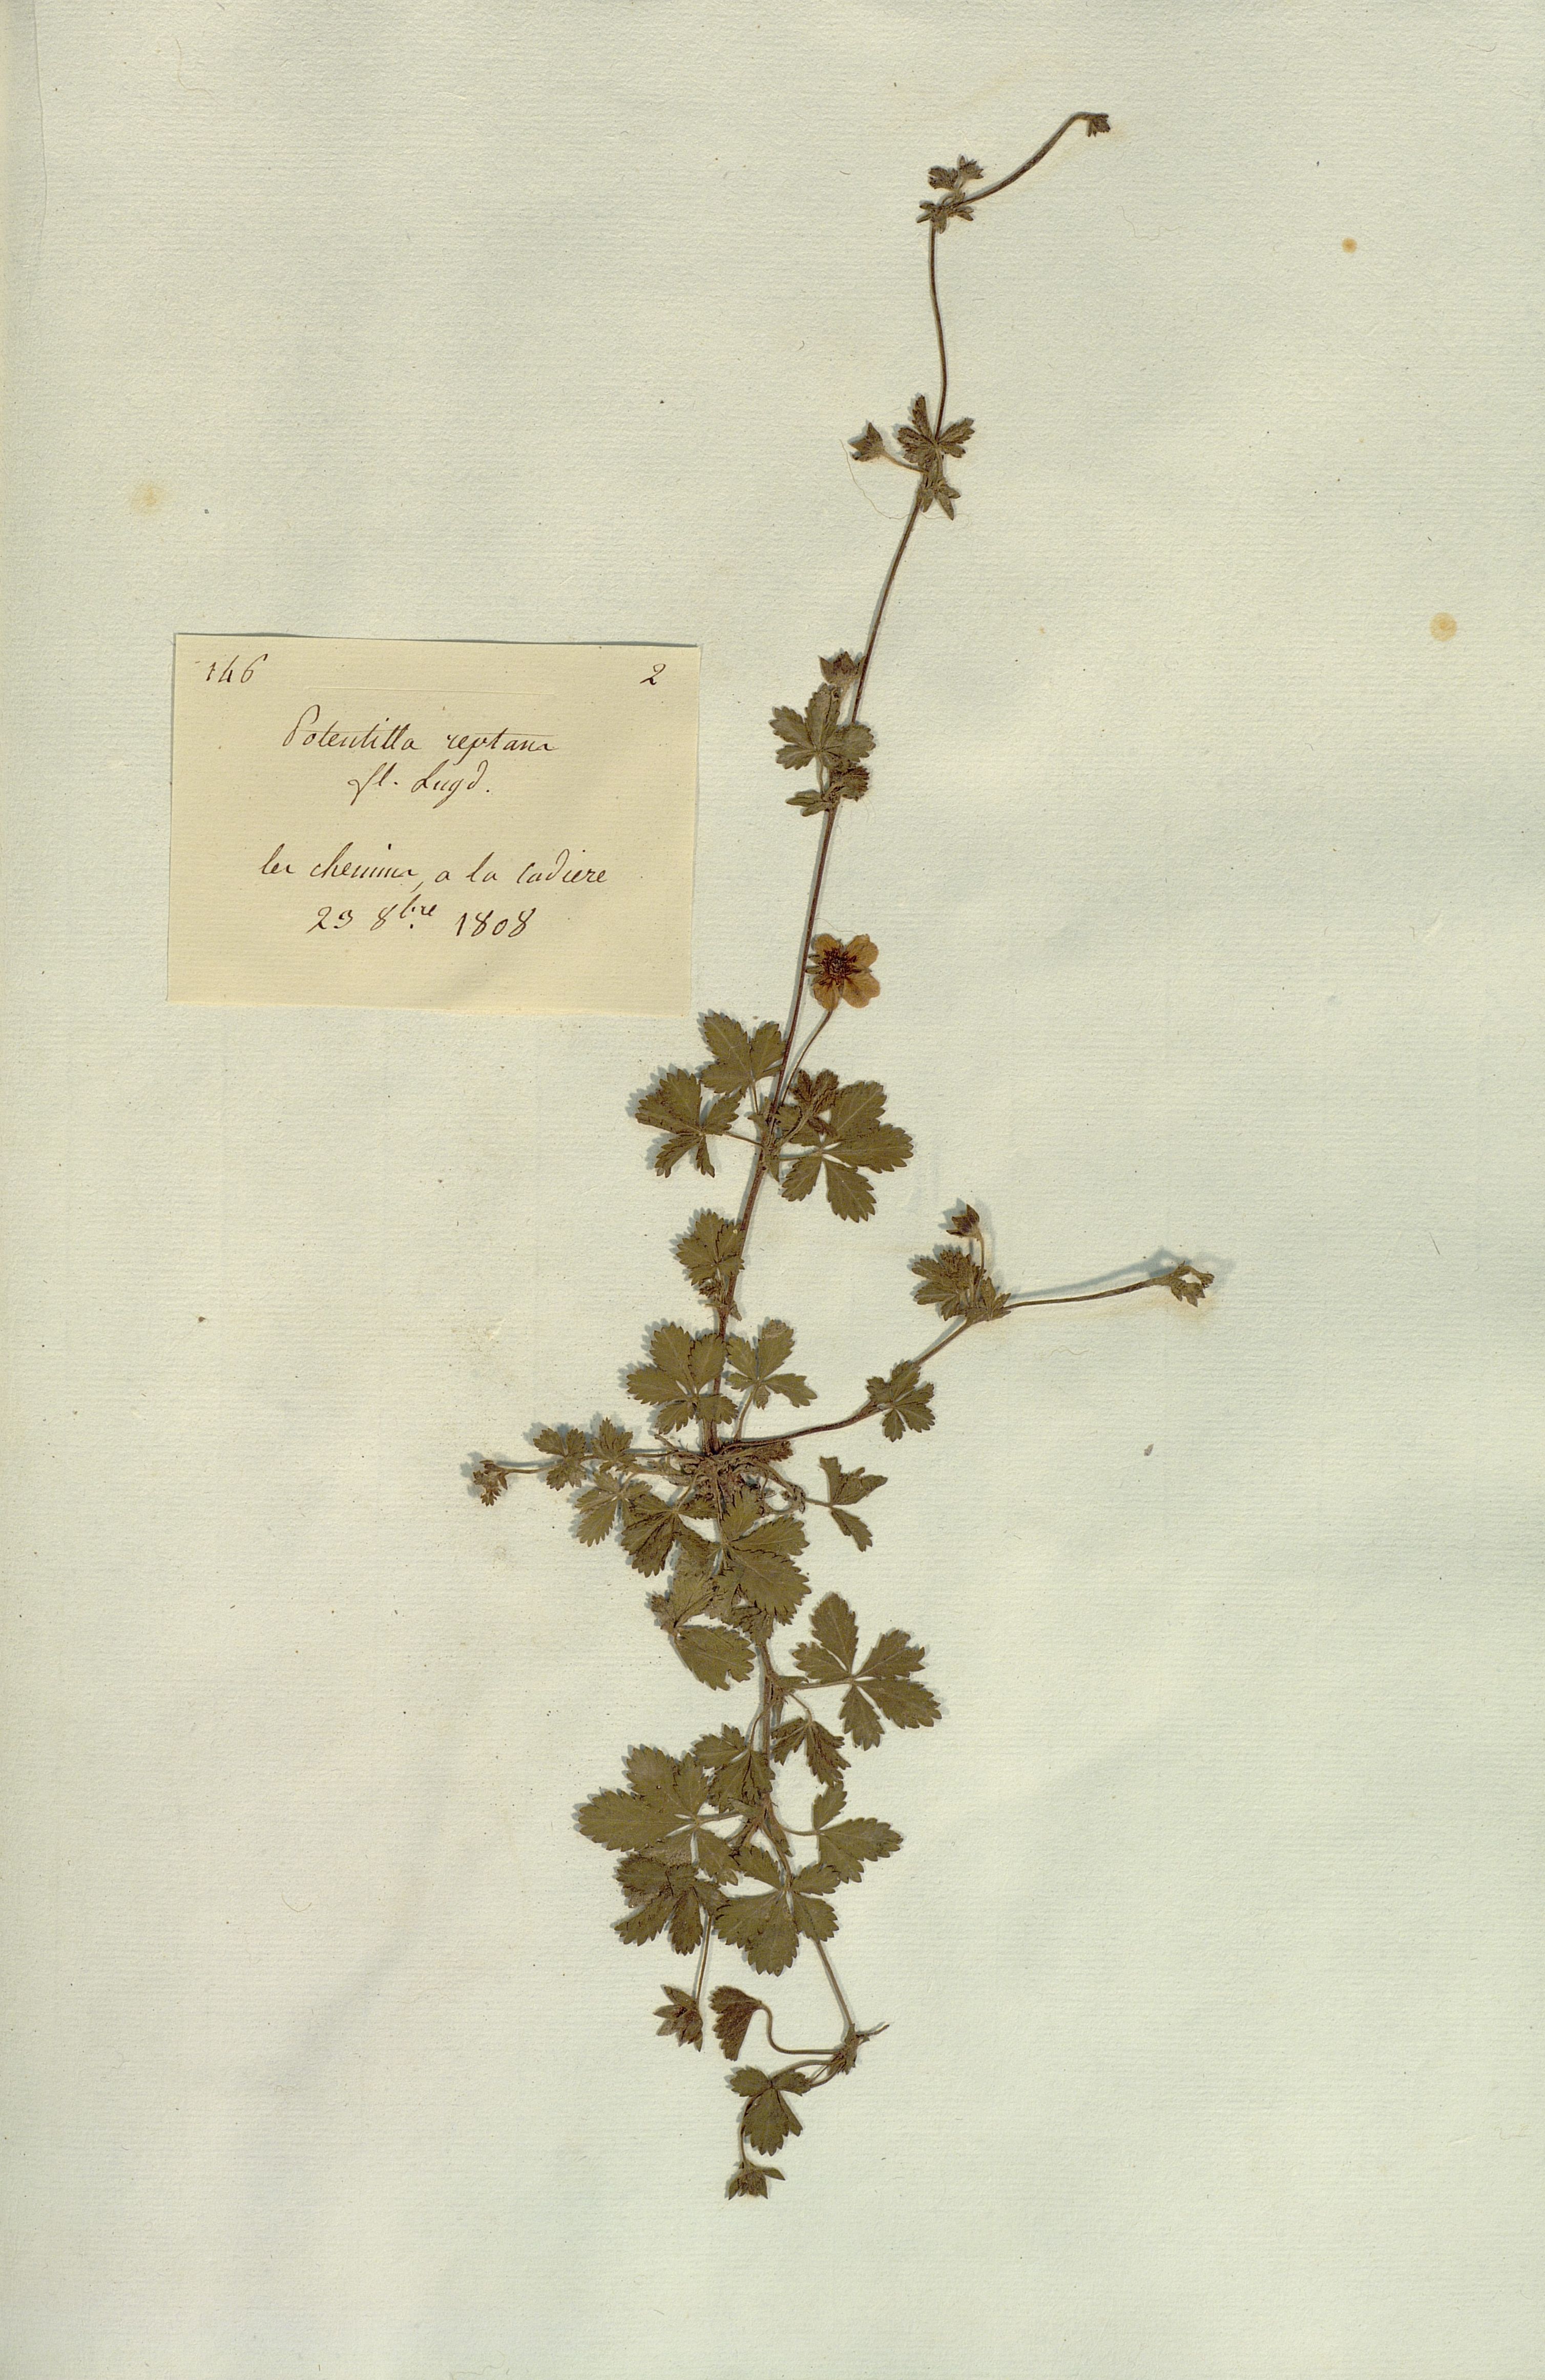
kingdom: Plantae
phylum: Tracheophyta
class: Magnoliopsida
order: Rosales
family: Rosaceae
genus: Potentilla
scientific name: Potentilla reptans
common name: Creeping cinquefoil
